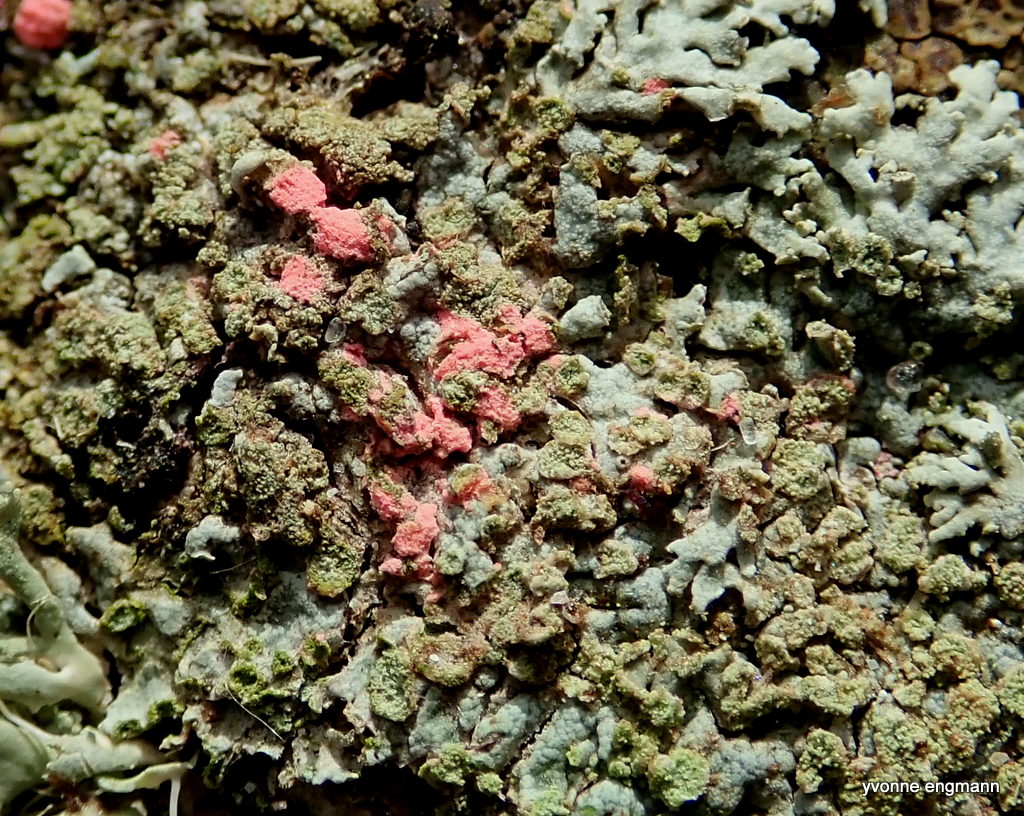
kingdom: Fungi
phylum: Ascomycota
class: Sordariomycetes
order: Hypocreales
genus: Illosporiopsis
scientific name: Illosporiopsis christiansenii
